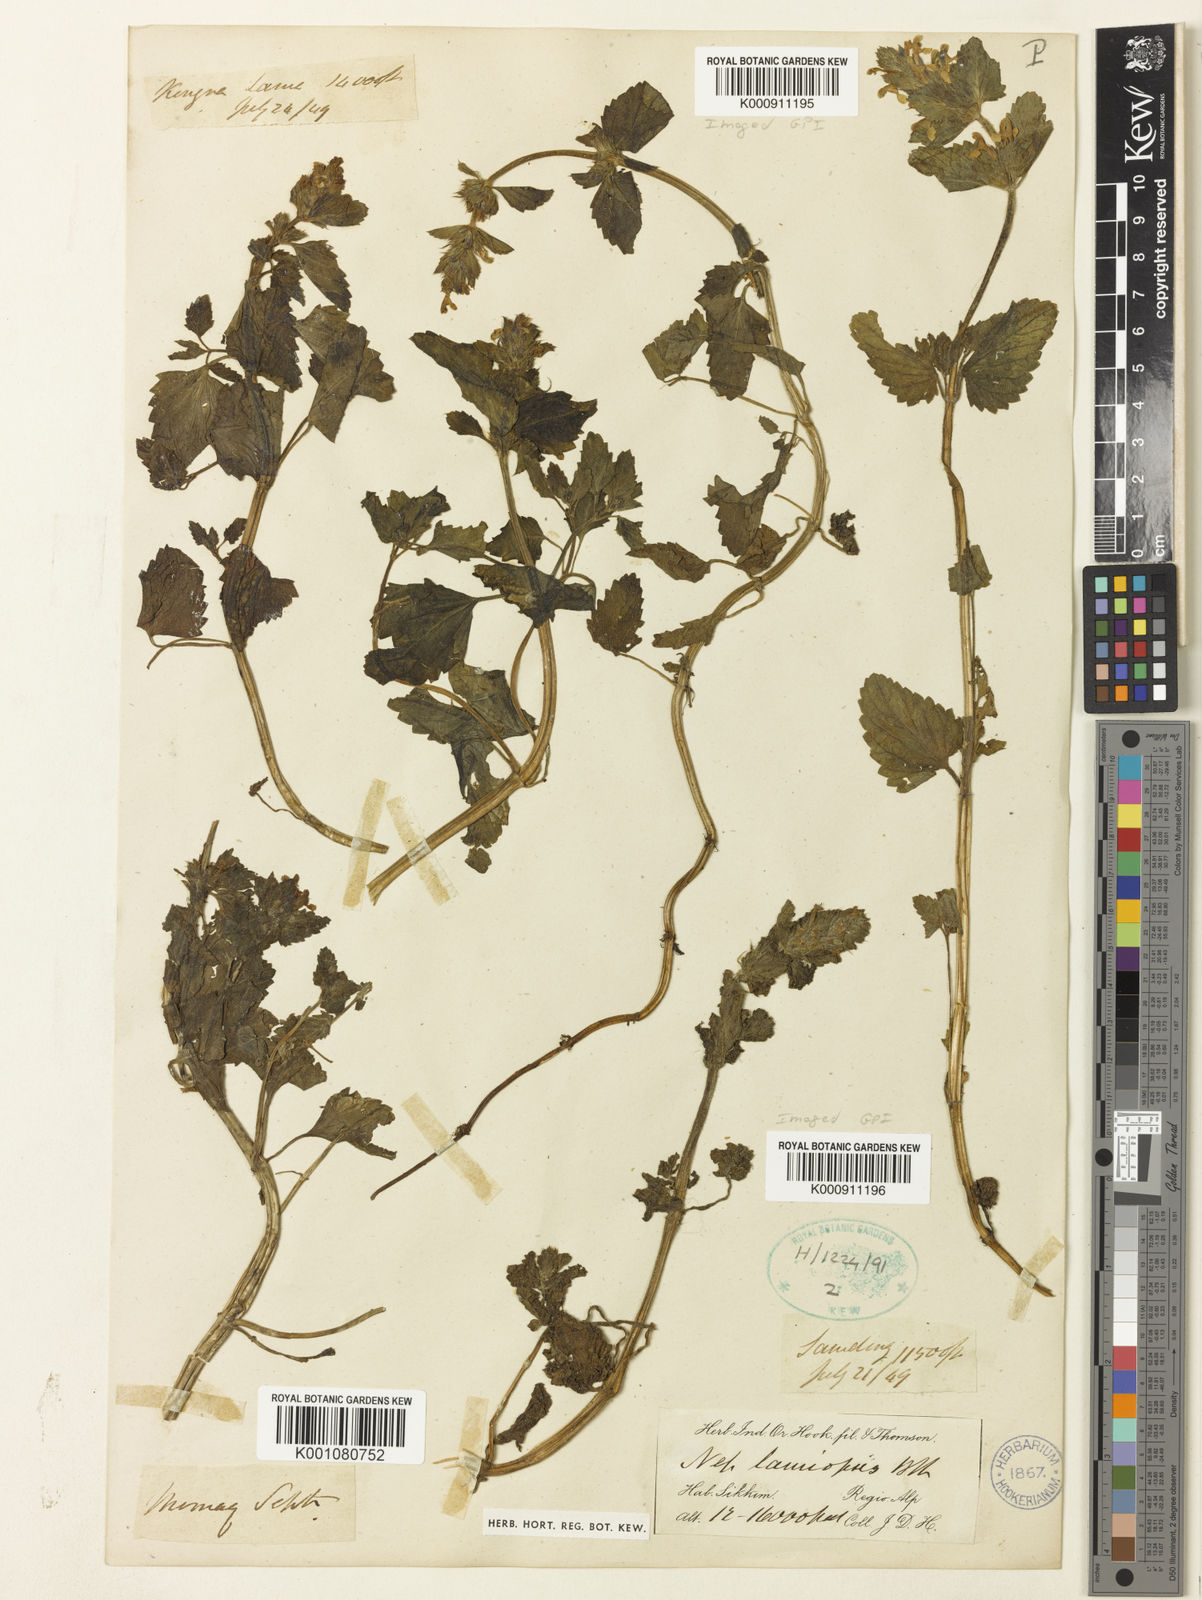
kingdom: Plantae
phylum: Tracheophyta
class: Magnoliopsida
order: Lamiales
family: Lamiaceae
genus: Nepeta
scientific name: Nepeta lamiopsis
